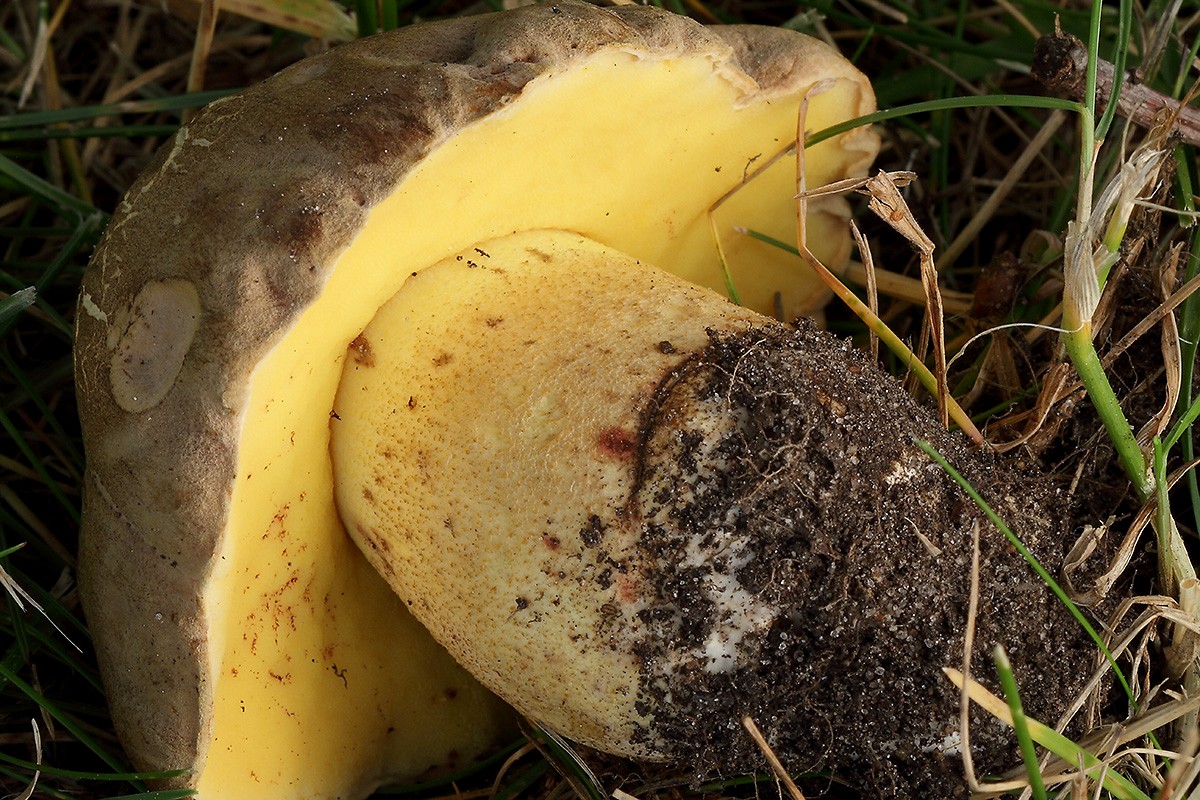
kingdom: Fungi
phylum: Basidiomycota
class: Agaricomycetes
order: Boletales
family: Boletaceae
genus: Hemileccinum
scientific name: Hemileccinum impolitum
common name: bleg rørhat
